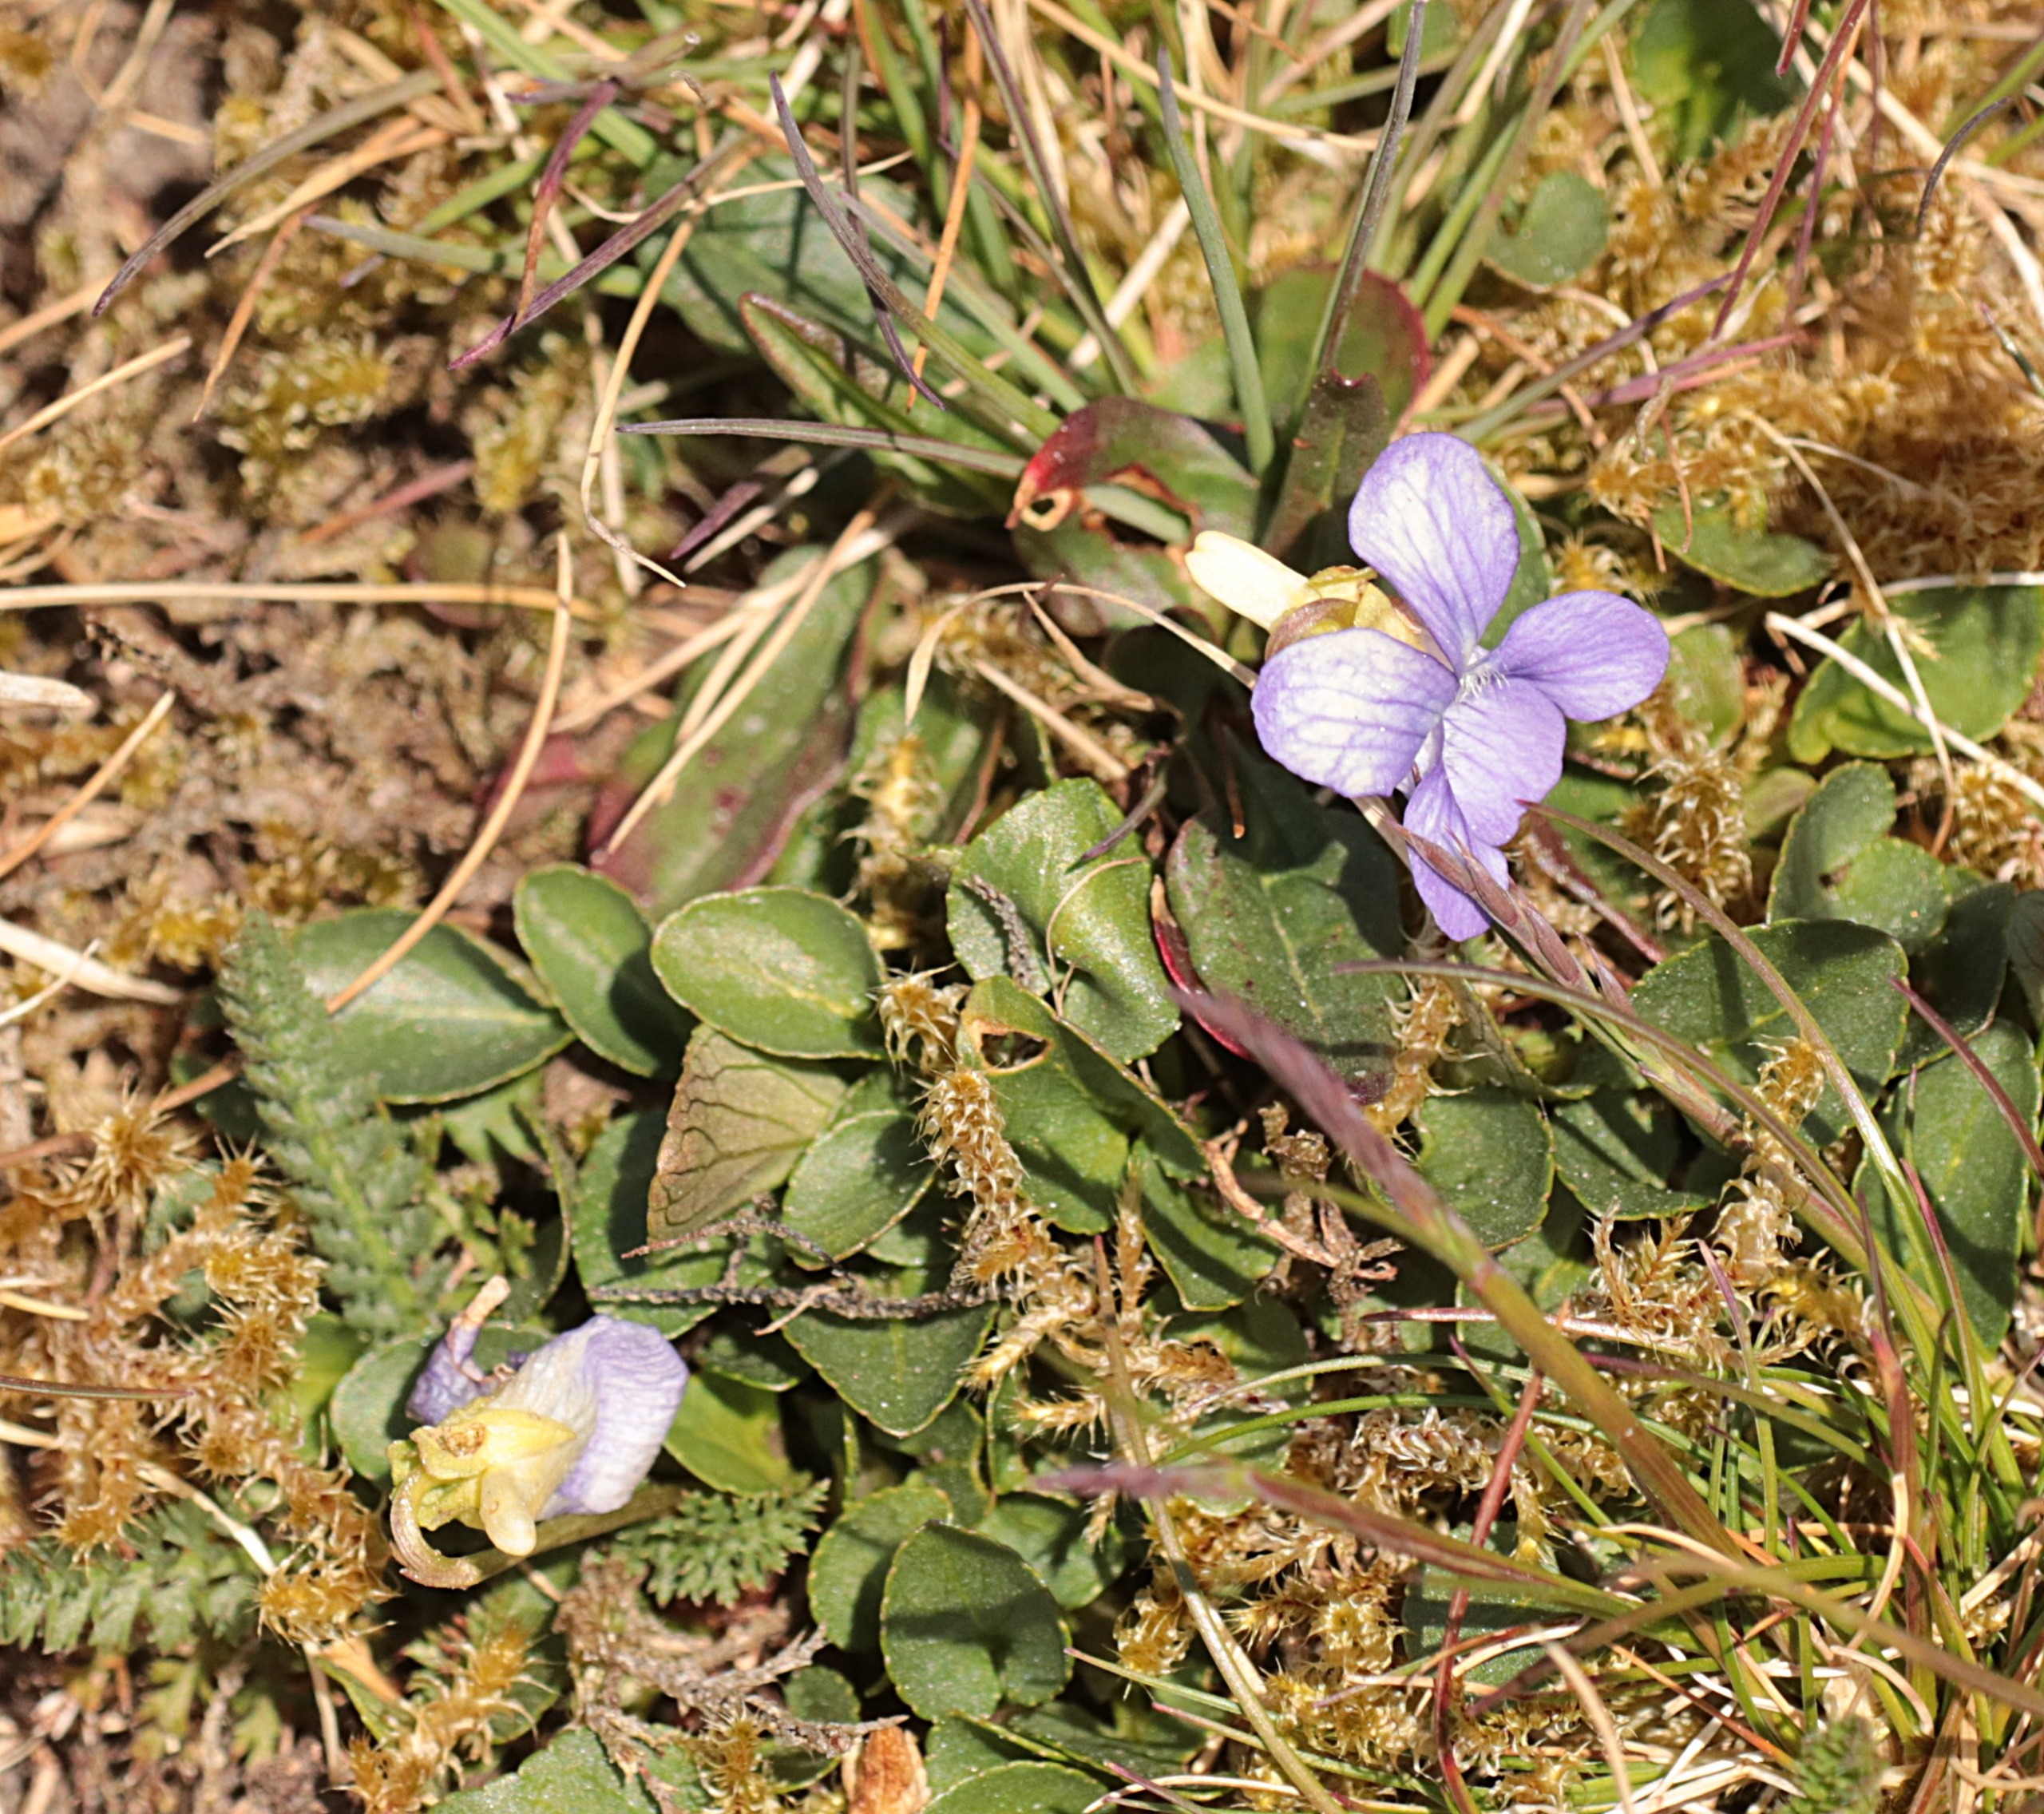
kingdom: Plantae
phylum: Tracheophyta
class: Magnoliopsida
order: Malpighiales
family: Violaceae
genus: Viola
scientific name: Viola canina
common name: Hunde-viol
